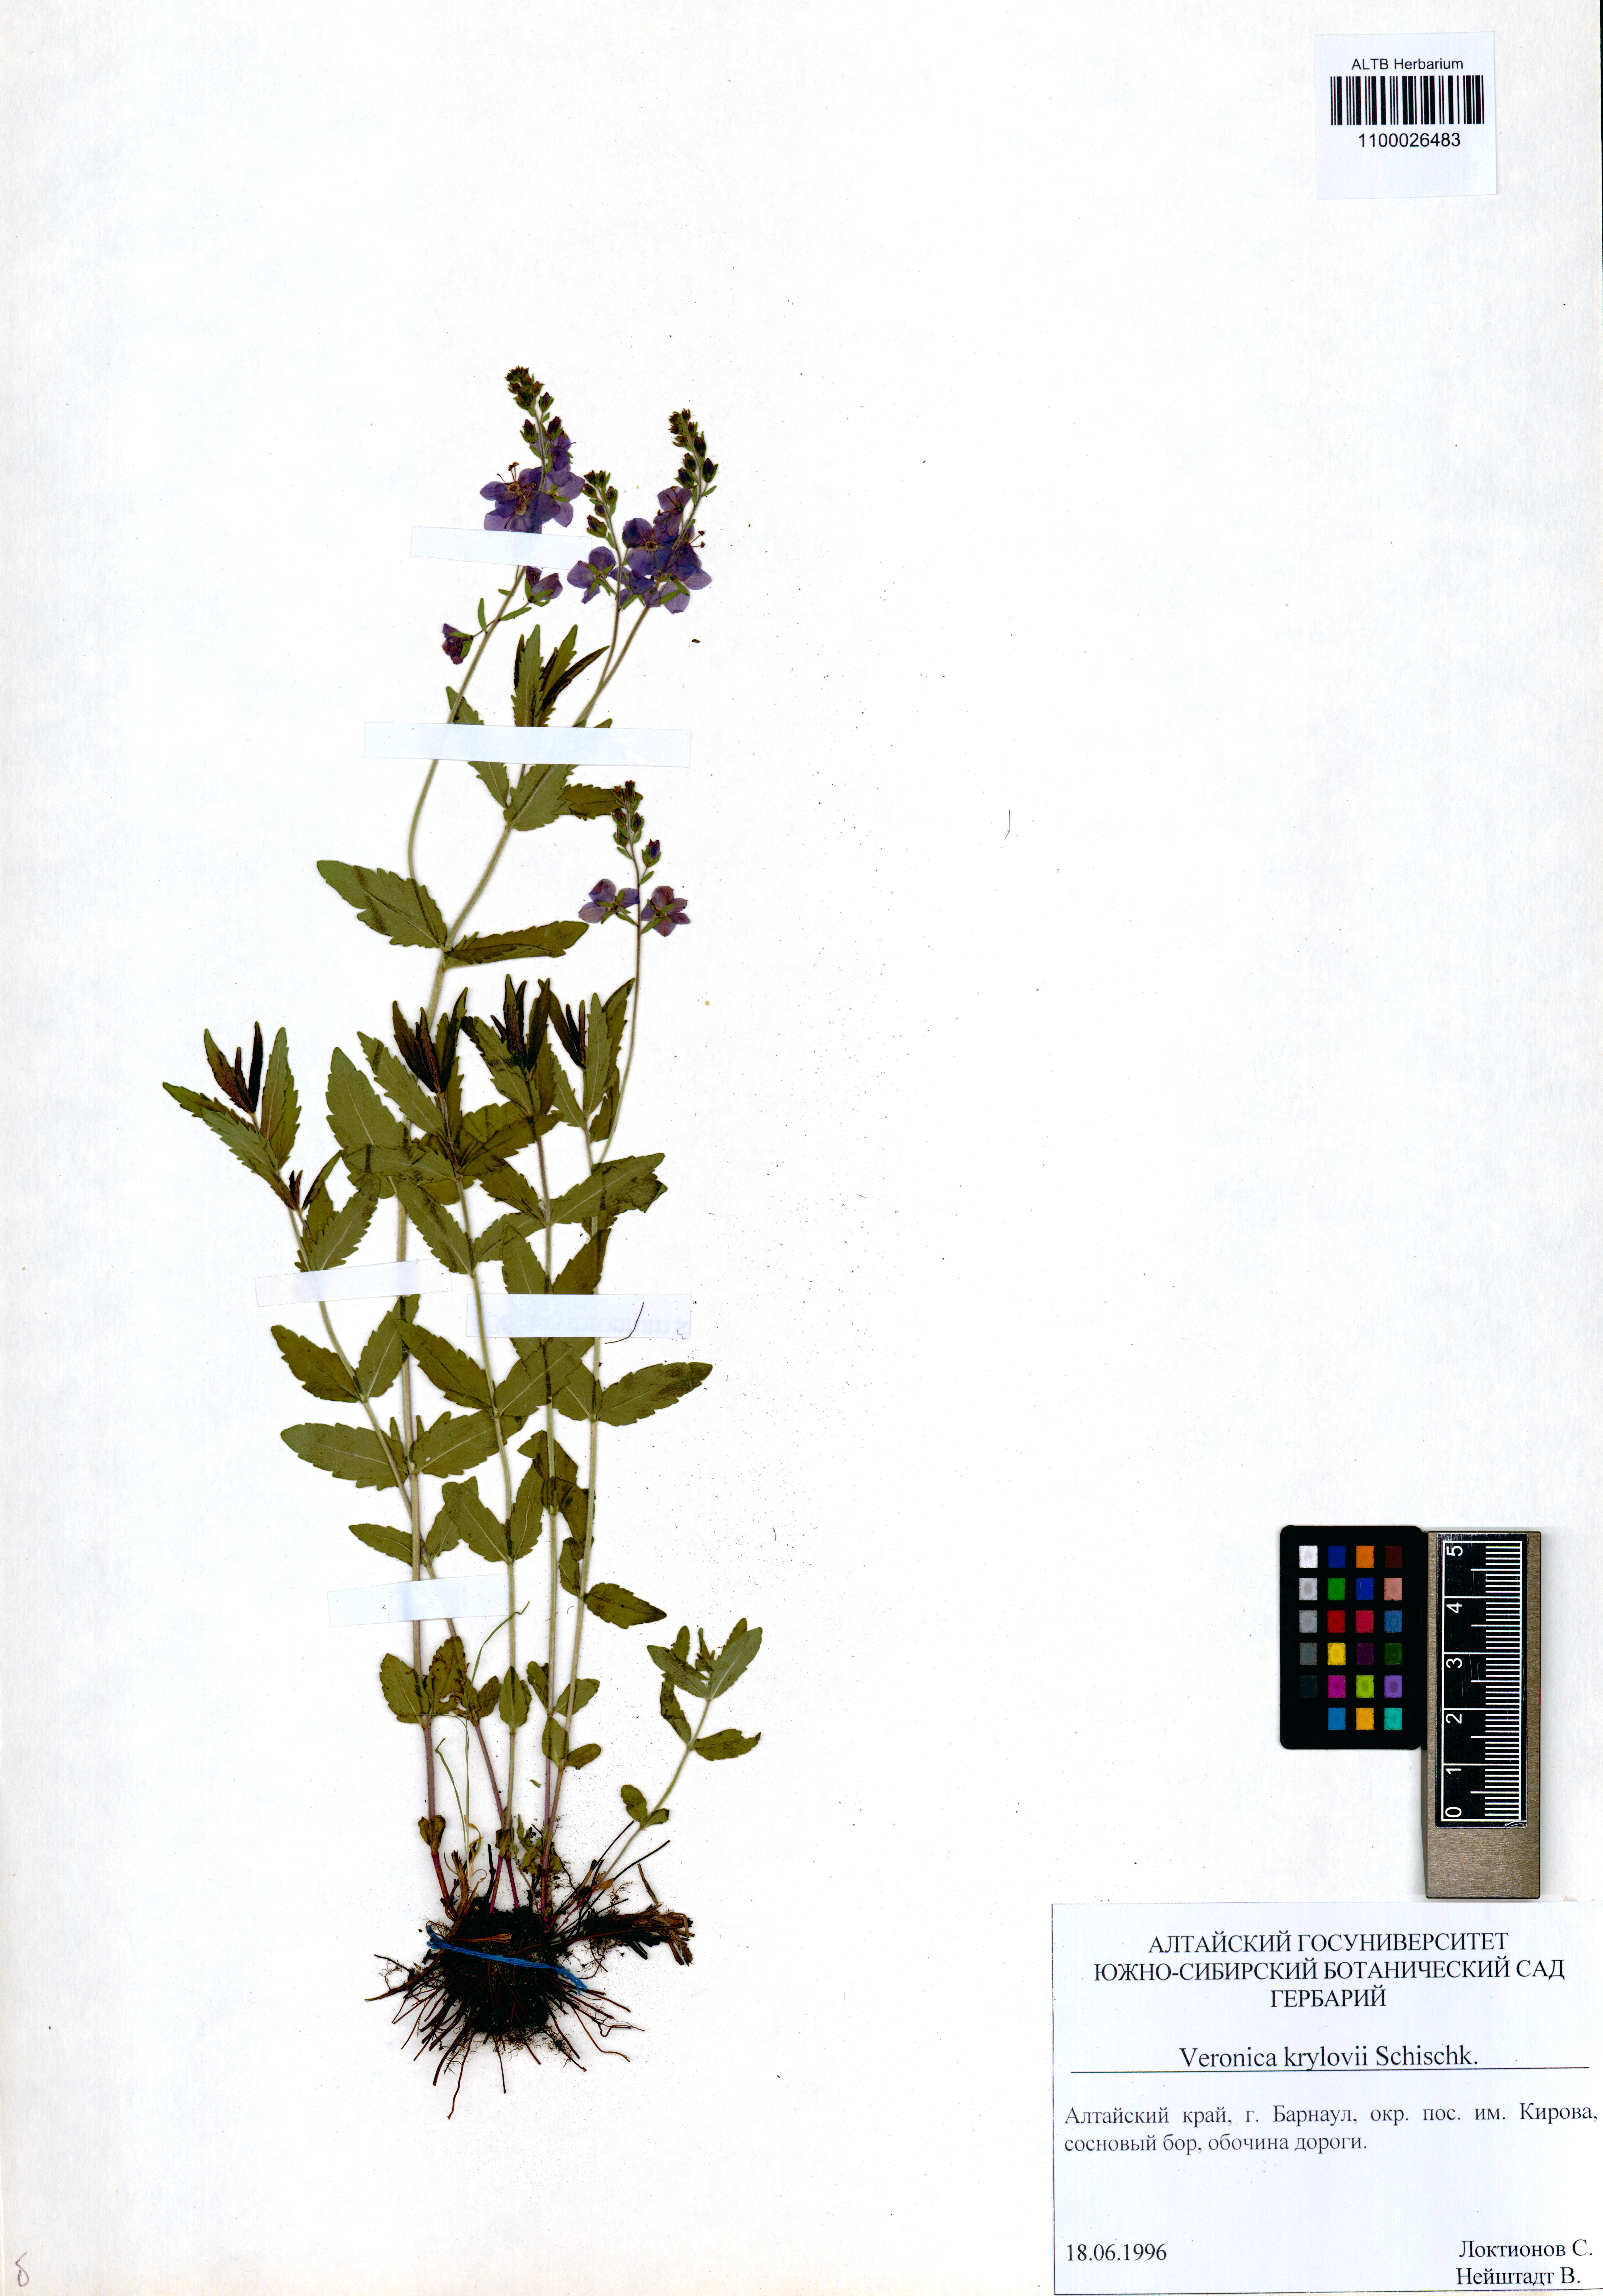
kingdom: Plantae
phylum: Tracheophyta
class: Magnoliopsida
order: Lamiales
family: Plantaginaceae
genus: Veronica
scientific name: Veronica krylovii
